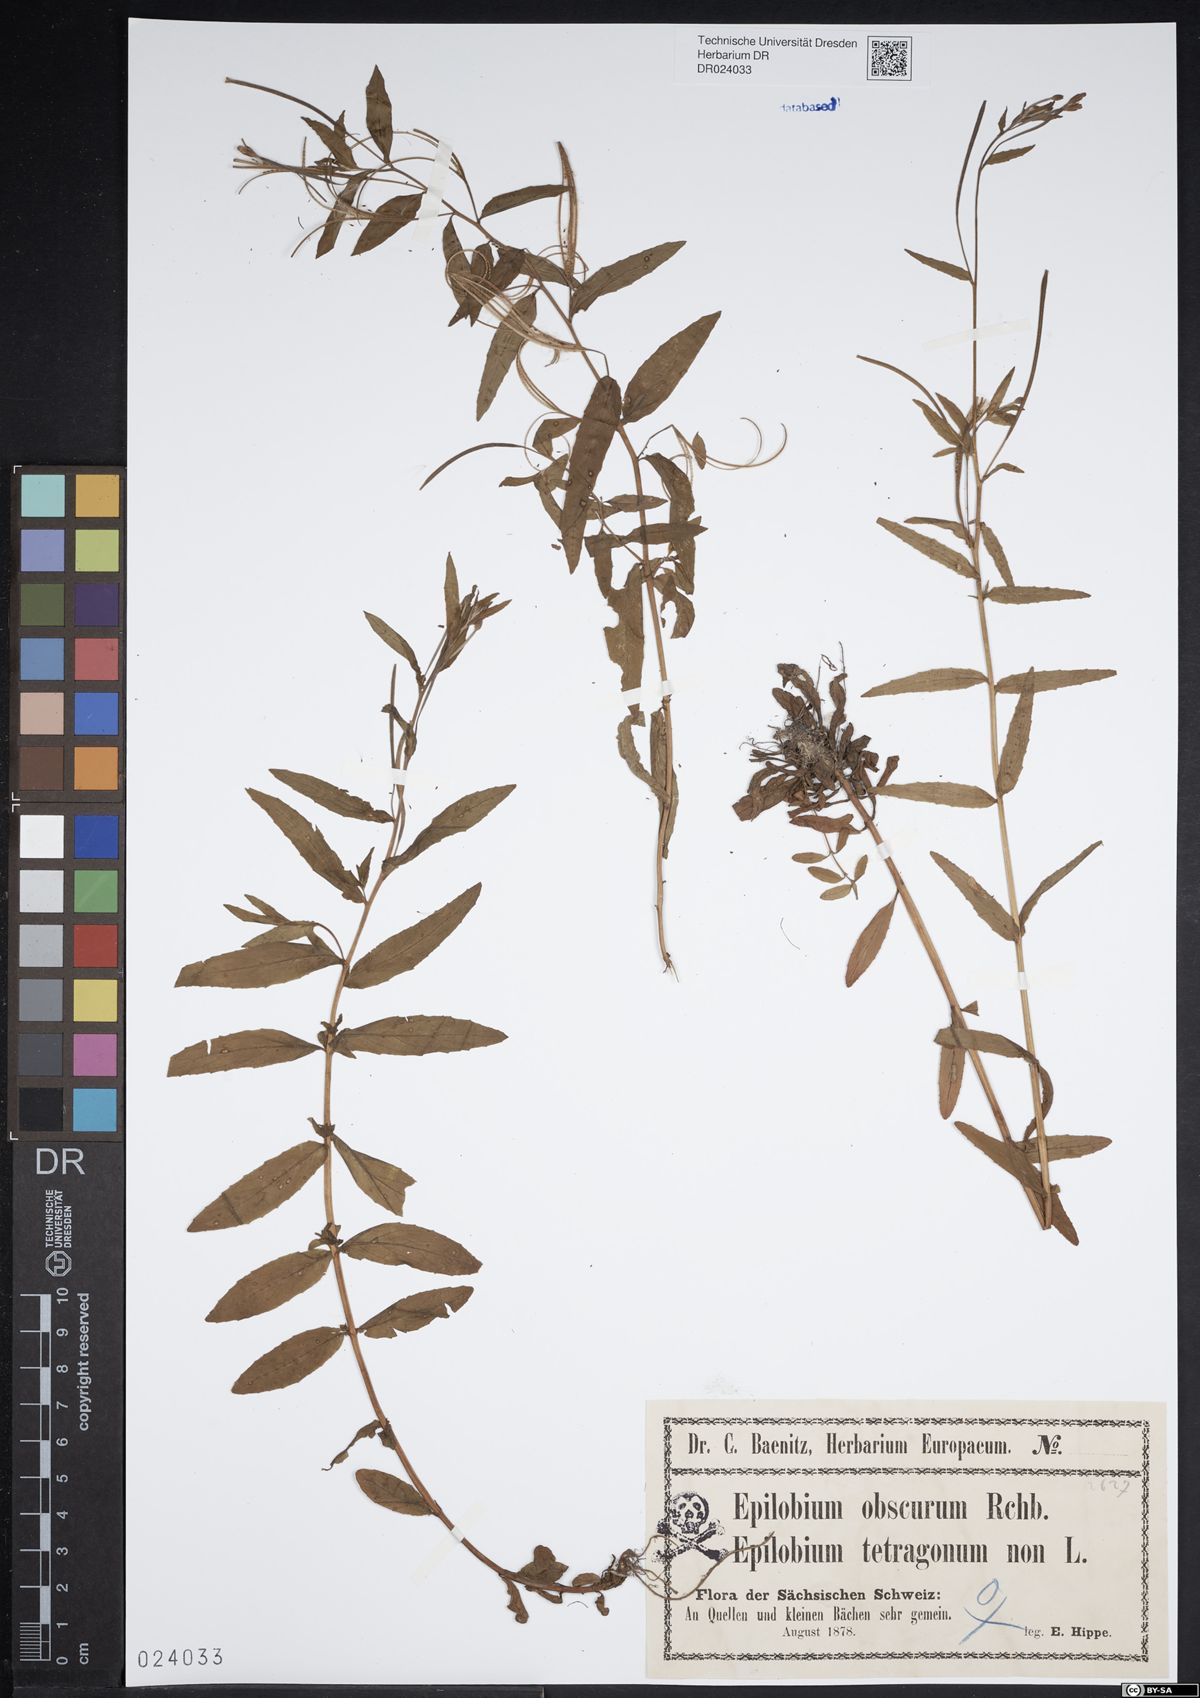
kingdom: Plantae
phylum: Tracheophyta
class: Magnoliopsida
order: Myrtales
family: Onagraceae
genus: Epilobium
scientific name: Epilobium obscurum
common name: Short-fruited willowherb
